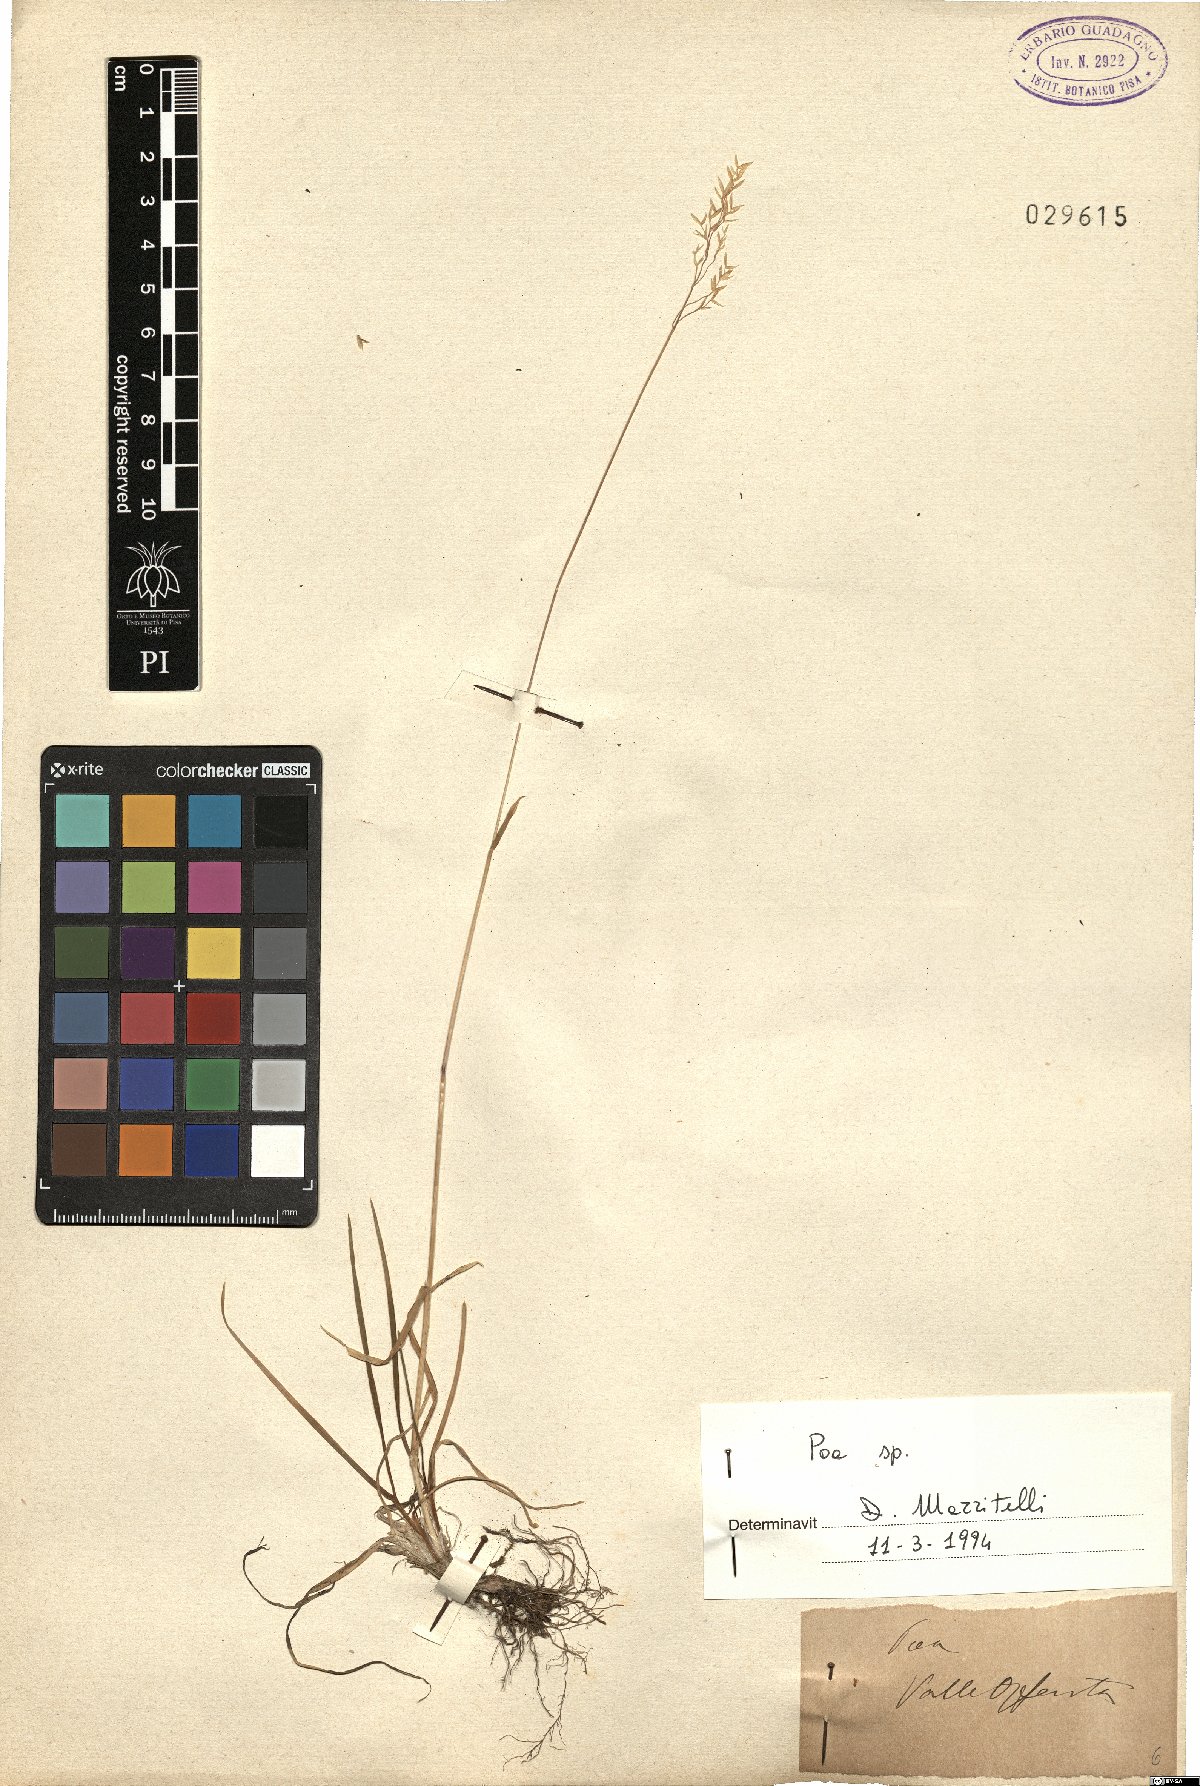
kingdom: Plantae
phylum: Tracheophyta
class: Liliopsida
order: Poales
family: Poaceae
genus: Poa
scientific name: Poa
